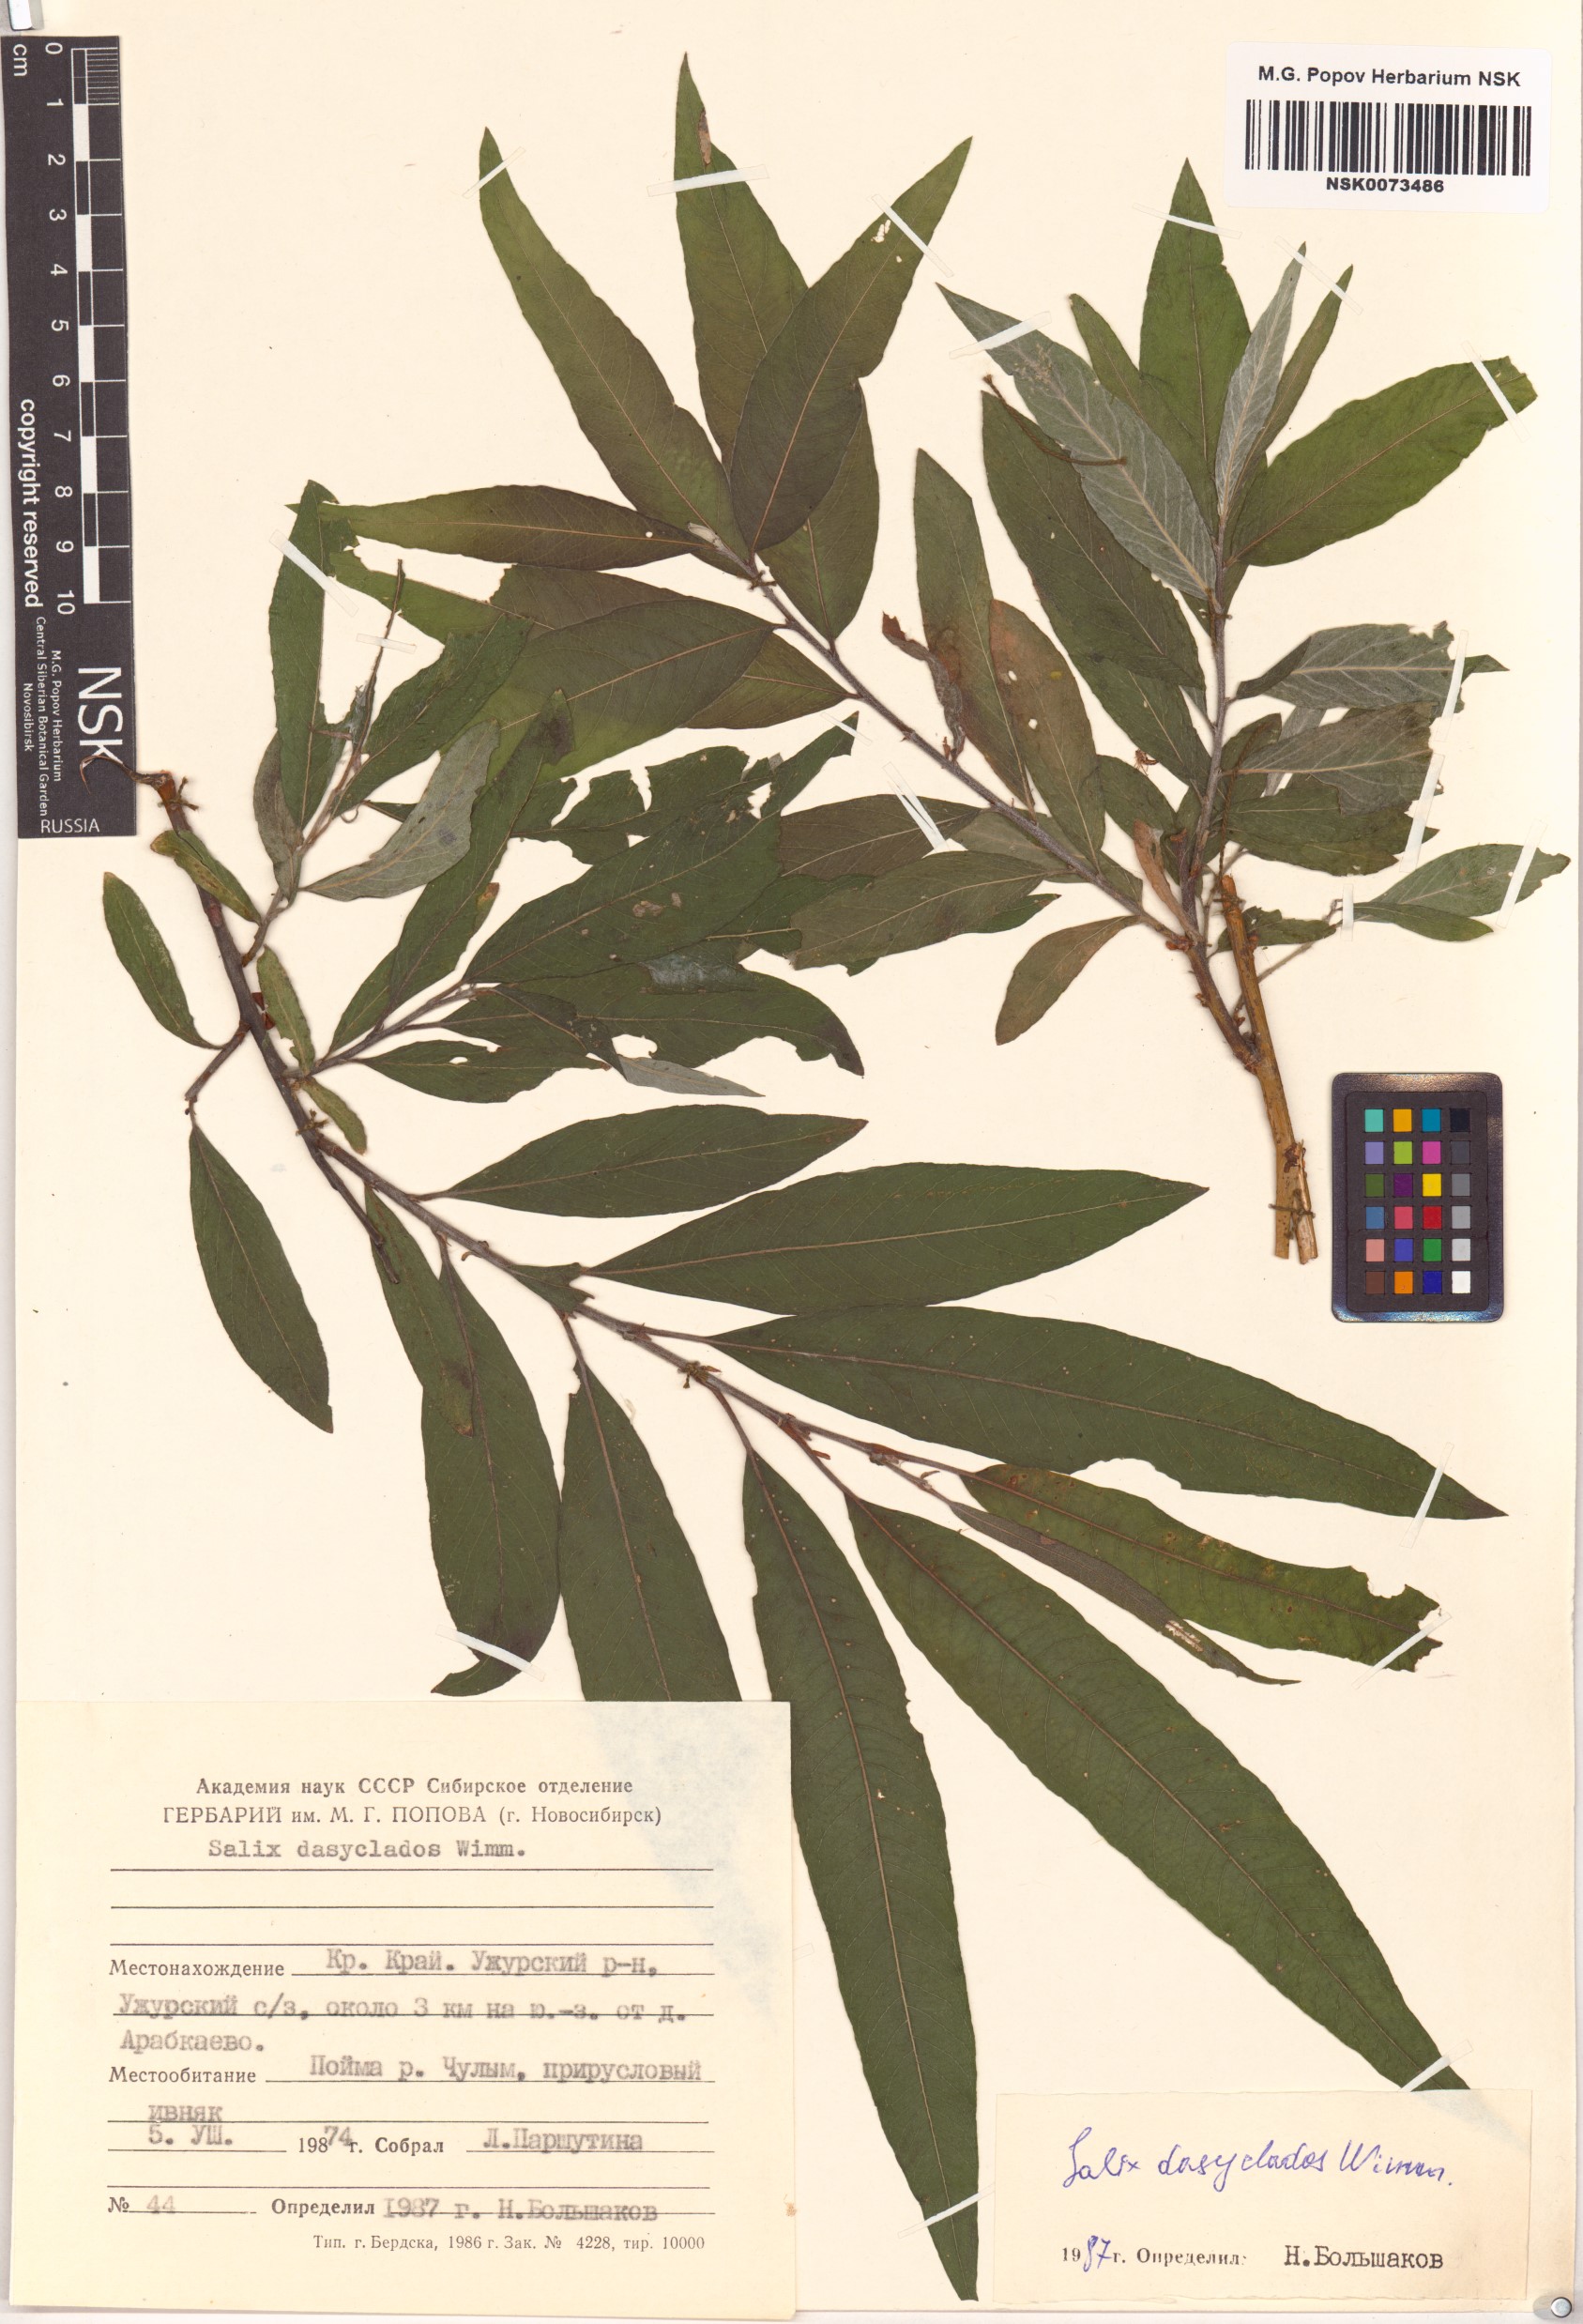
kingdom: Plantae
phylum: Tracheophyta
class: Magnoliopsida
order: Malpighiales
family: Salicaceae
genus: Salix
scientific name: Salix gmelinii
